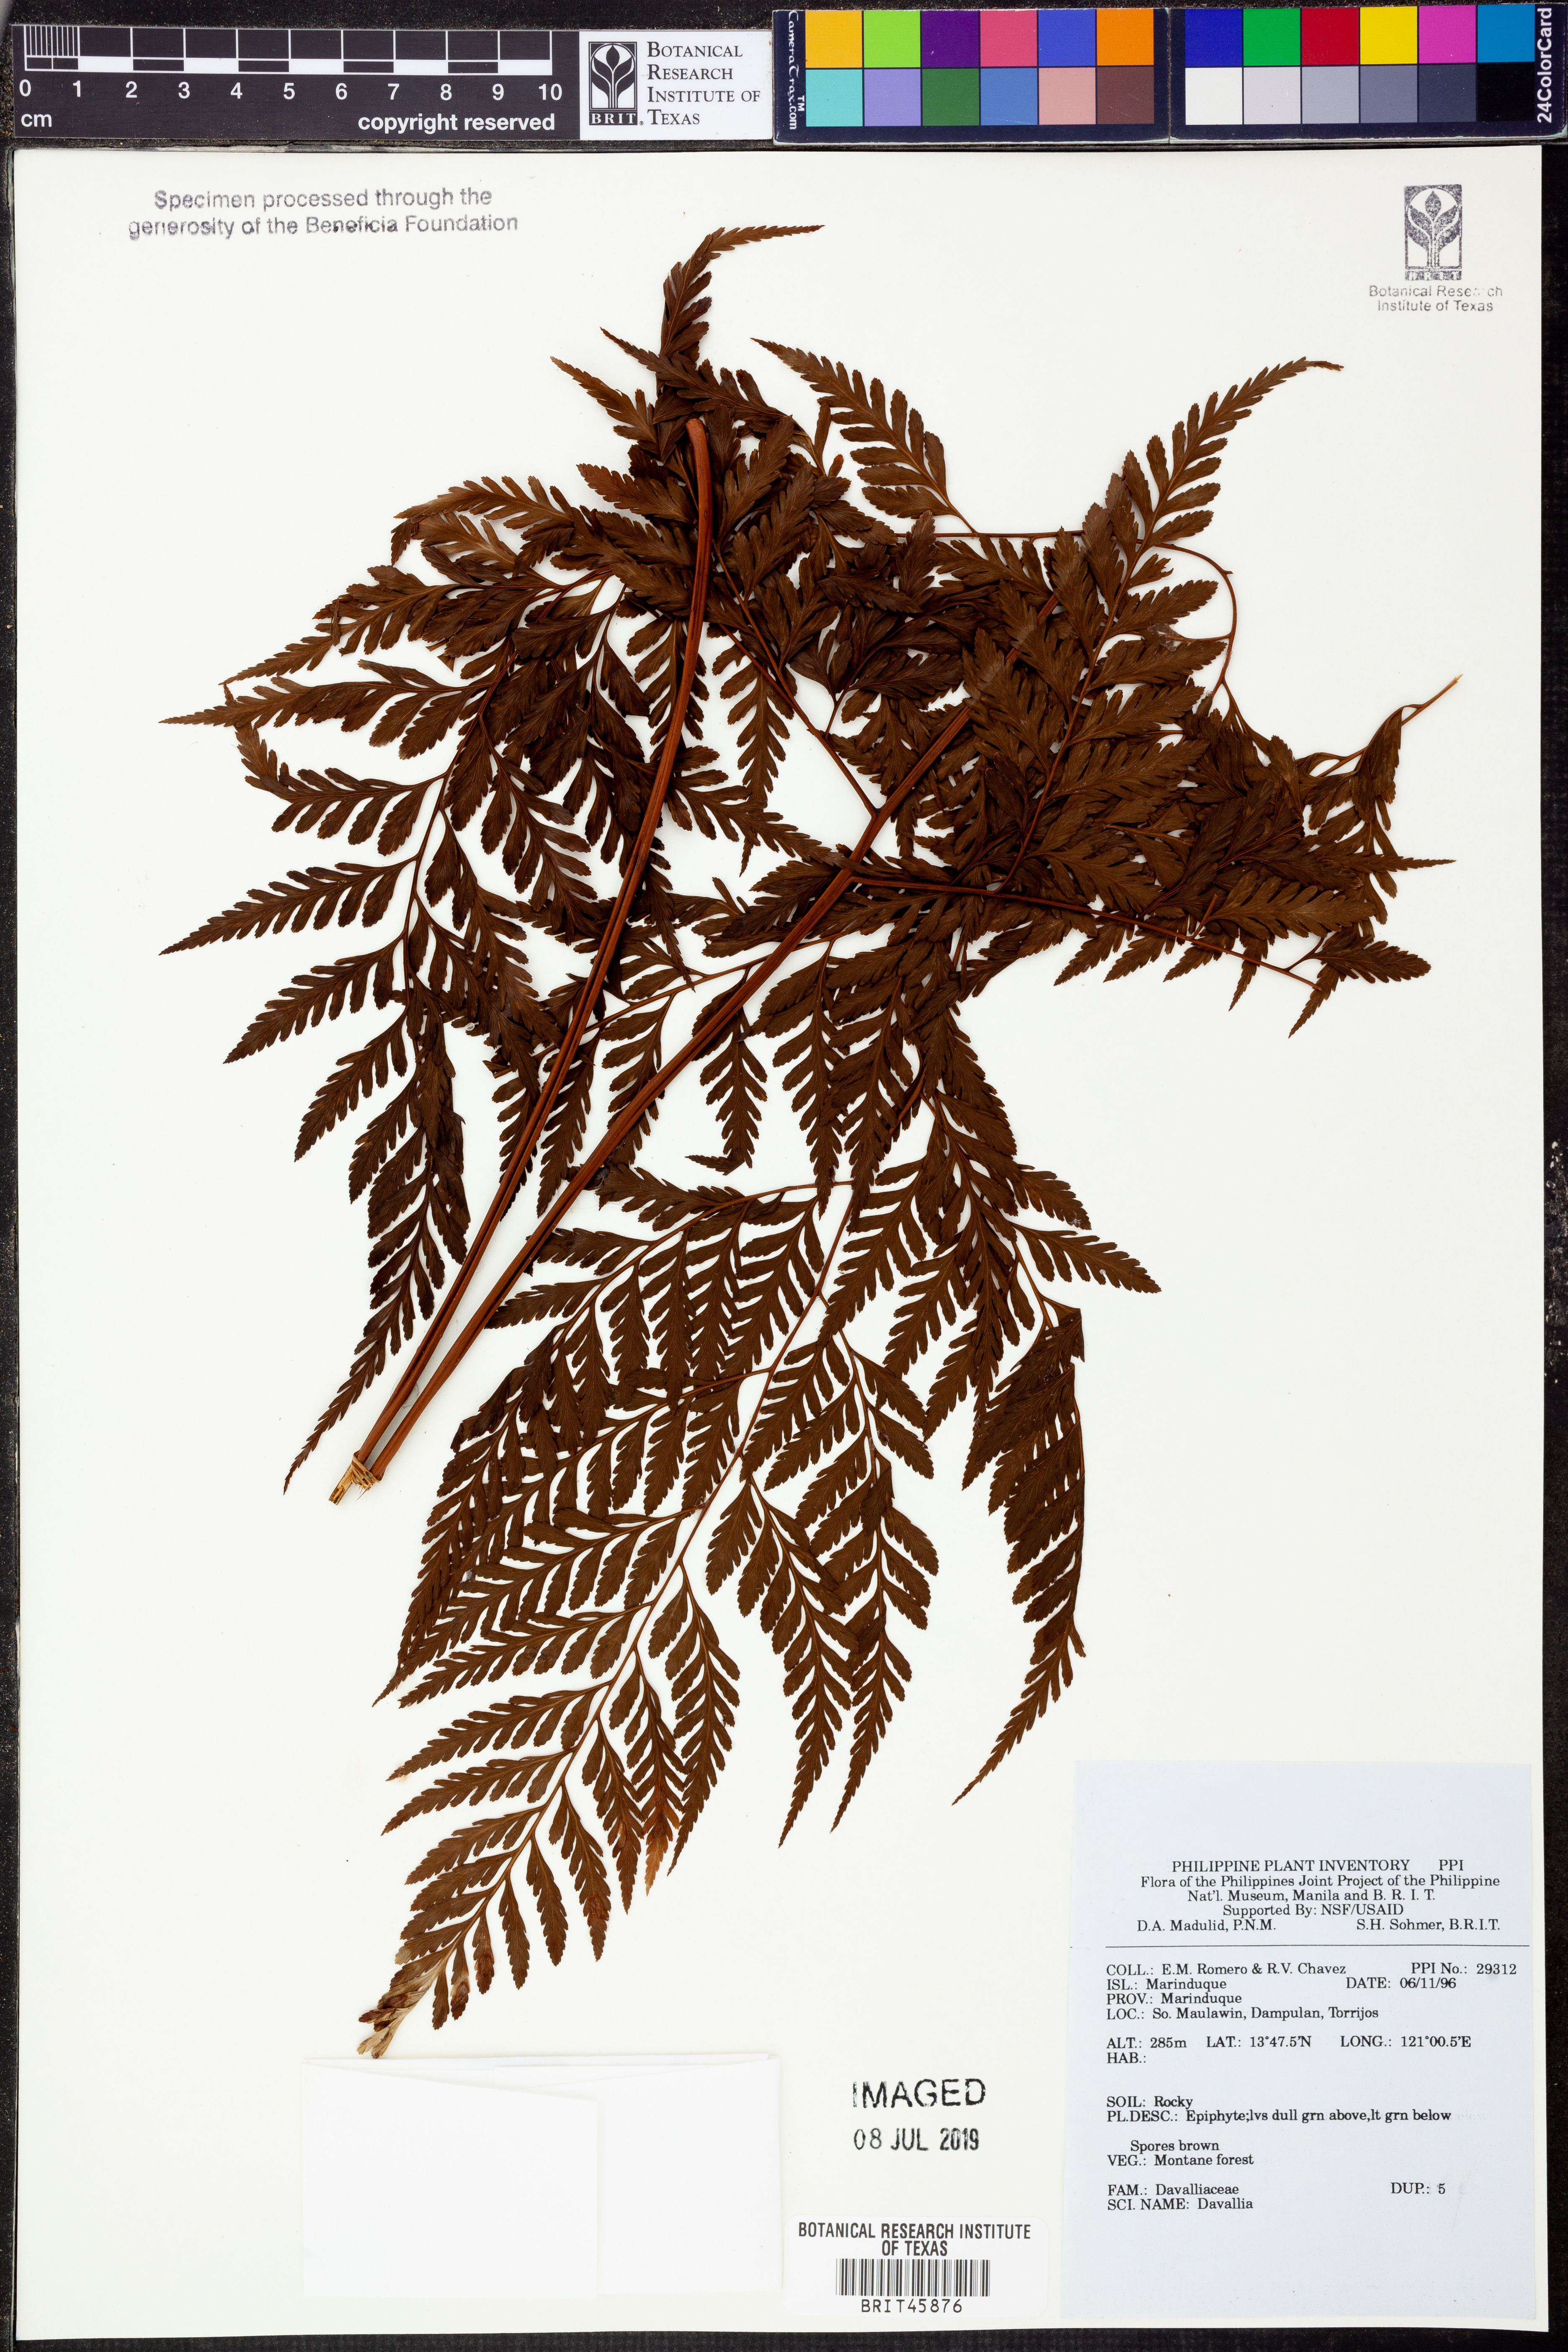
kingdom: Plantae
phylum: Tracheophyta
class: Polypodiopsida
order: Polypodiales
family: Davalliaceae
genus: Davallia
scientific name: Davallia
